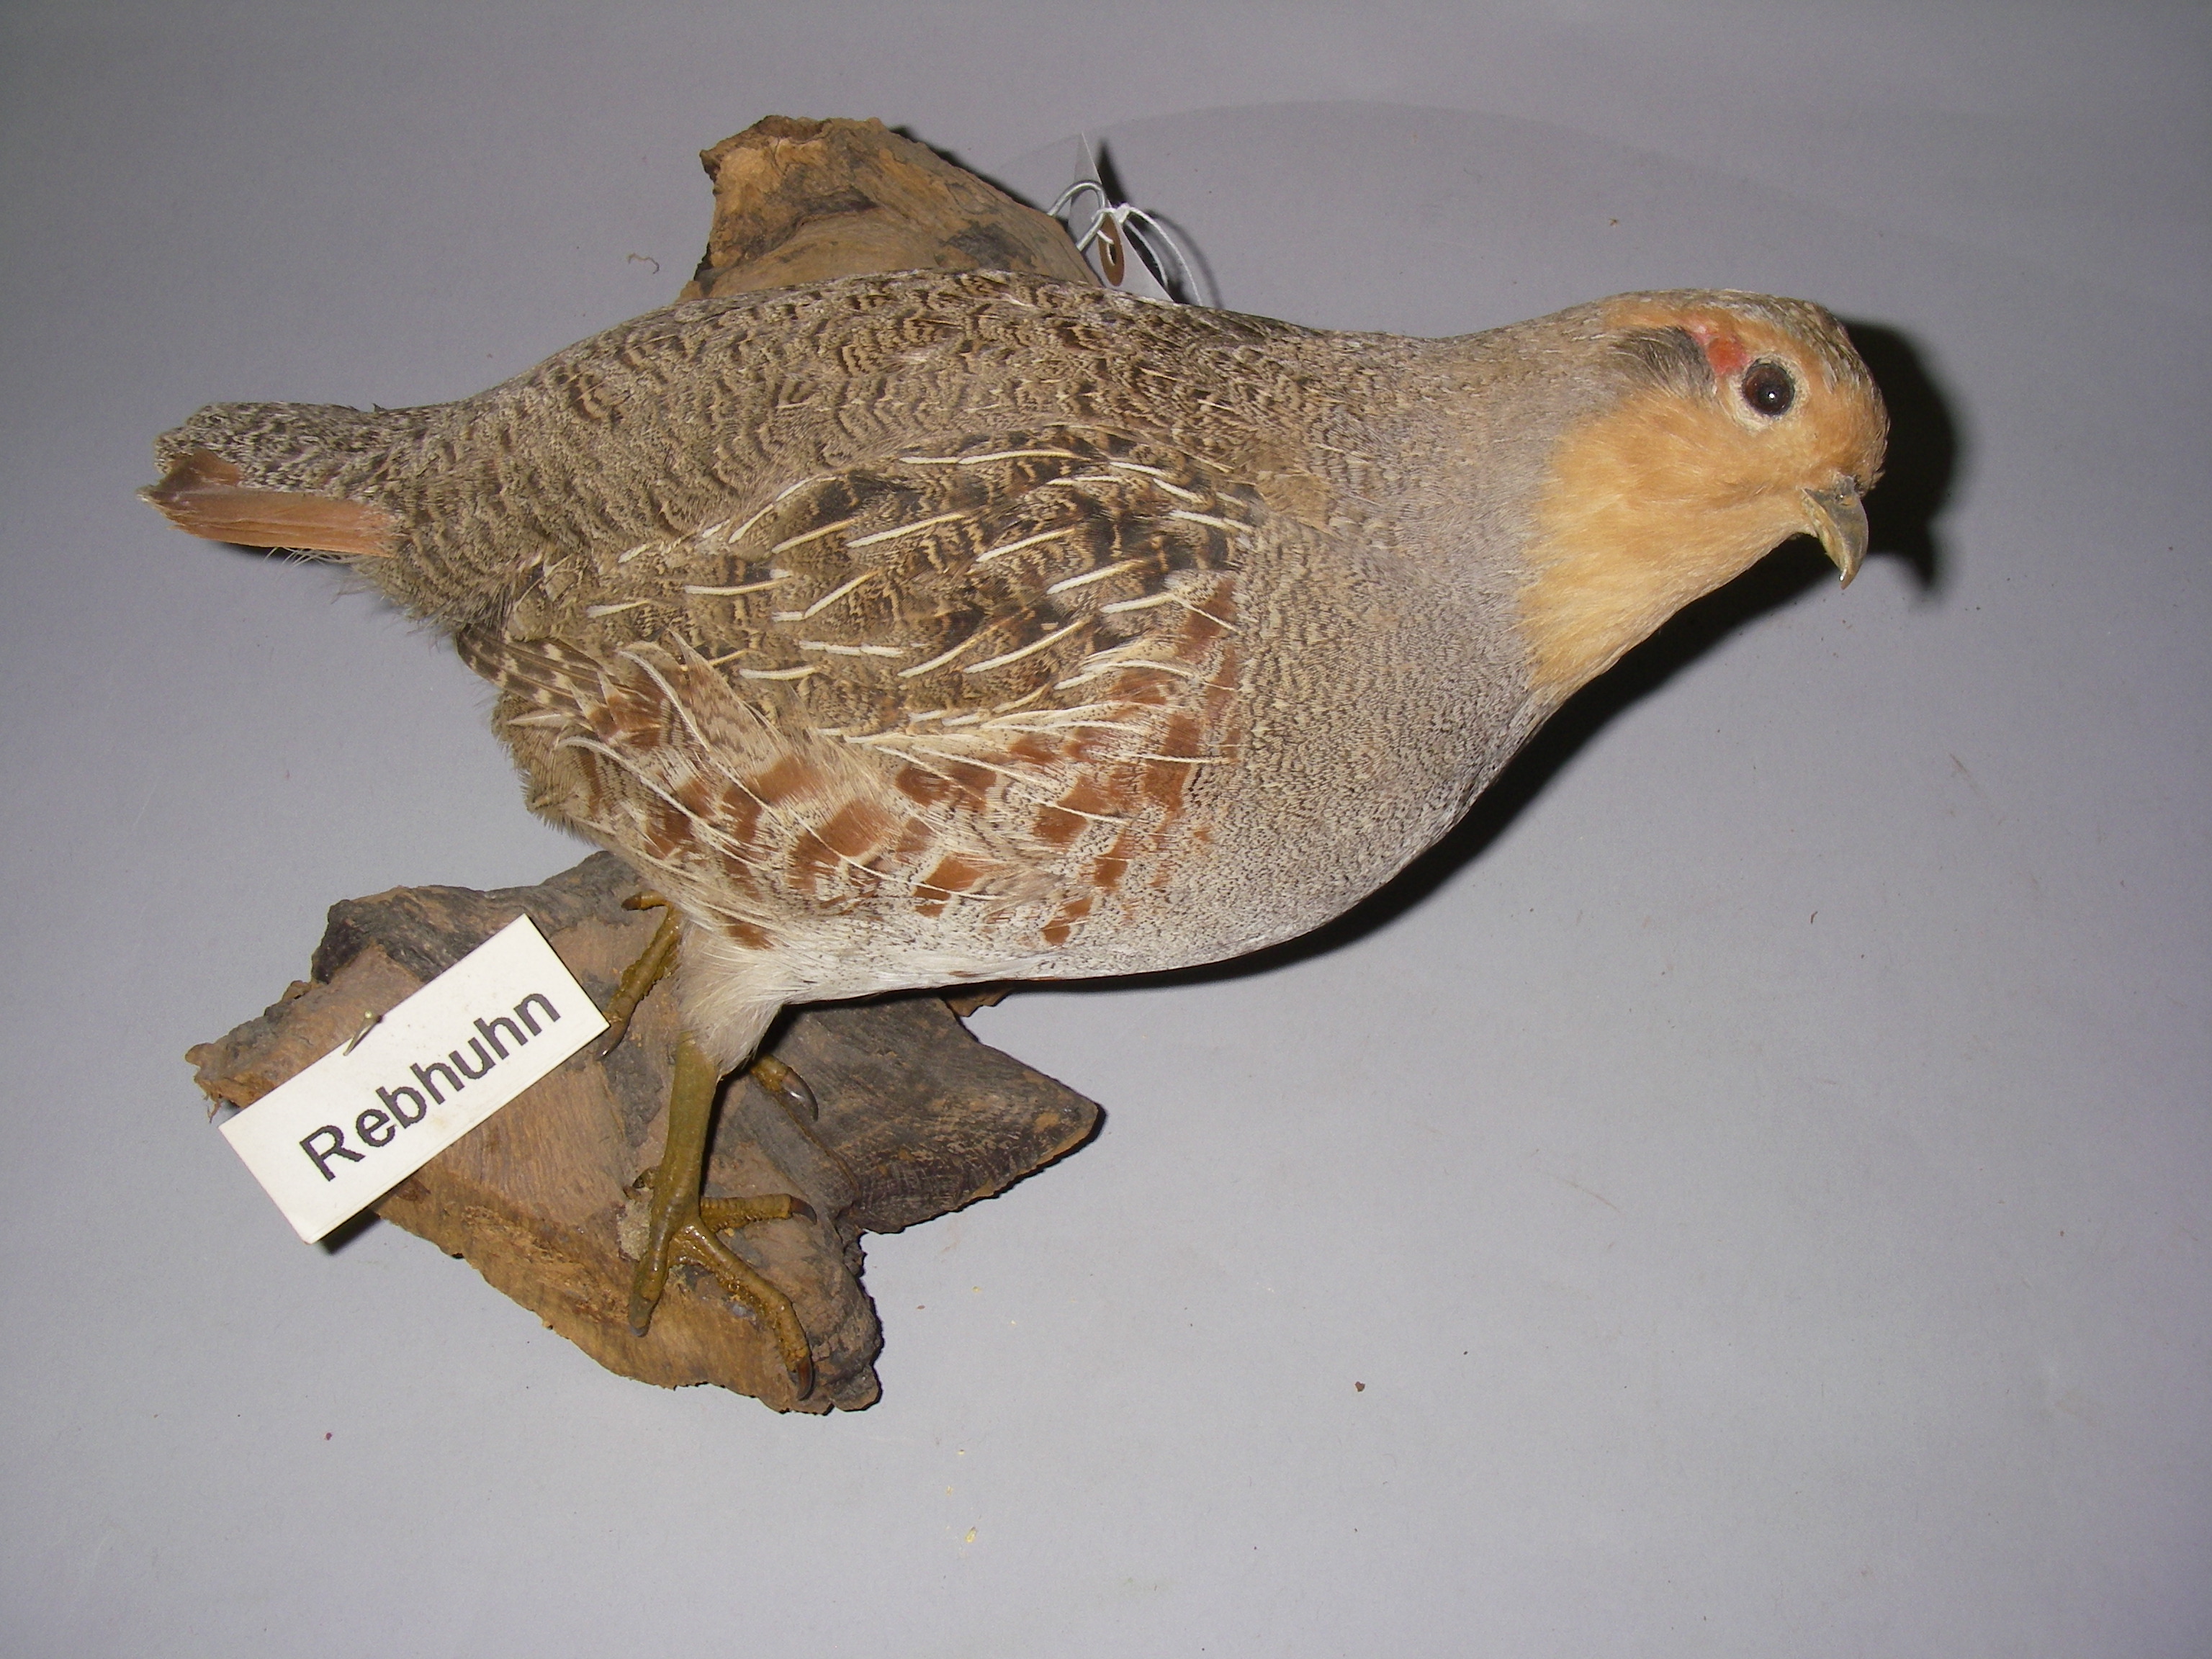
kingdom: Animalia
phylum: Chordata
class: Aves
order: Galliformes
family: Phasianidae
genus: Perdix
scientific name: Perdix perdix
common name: Grey partridge
